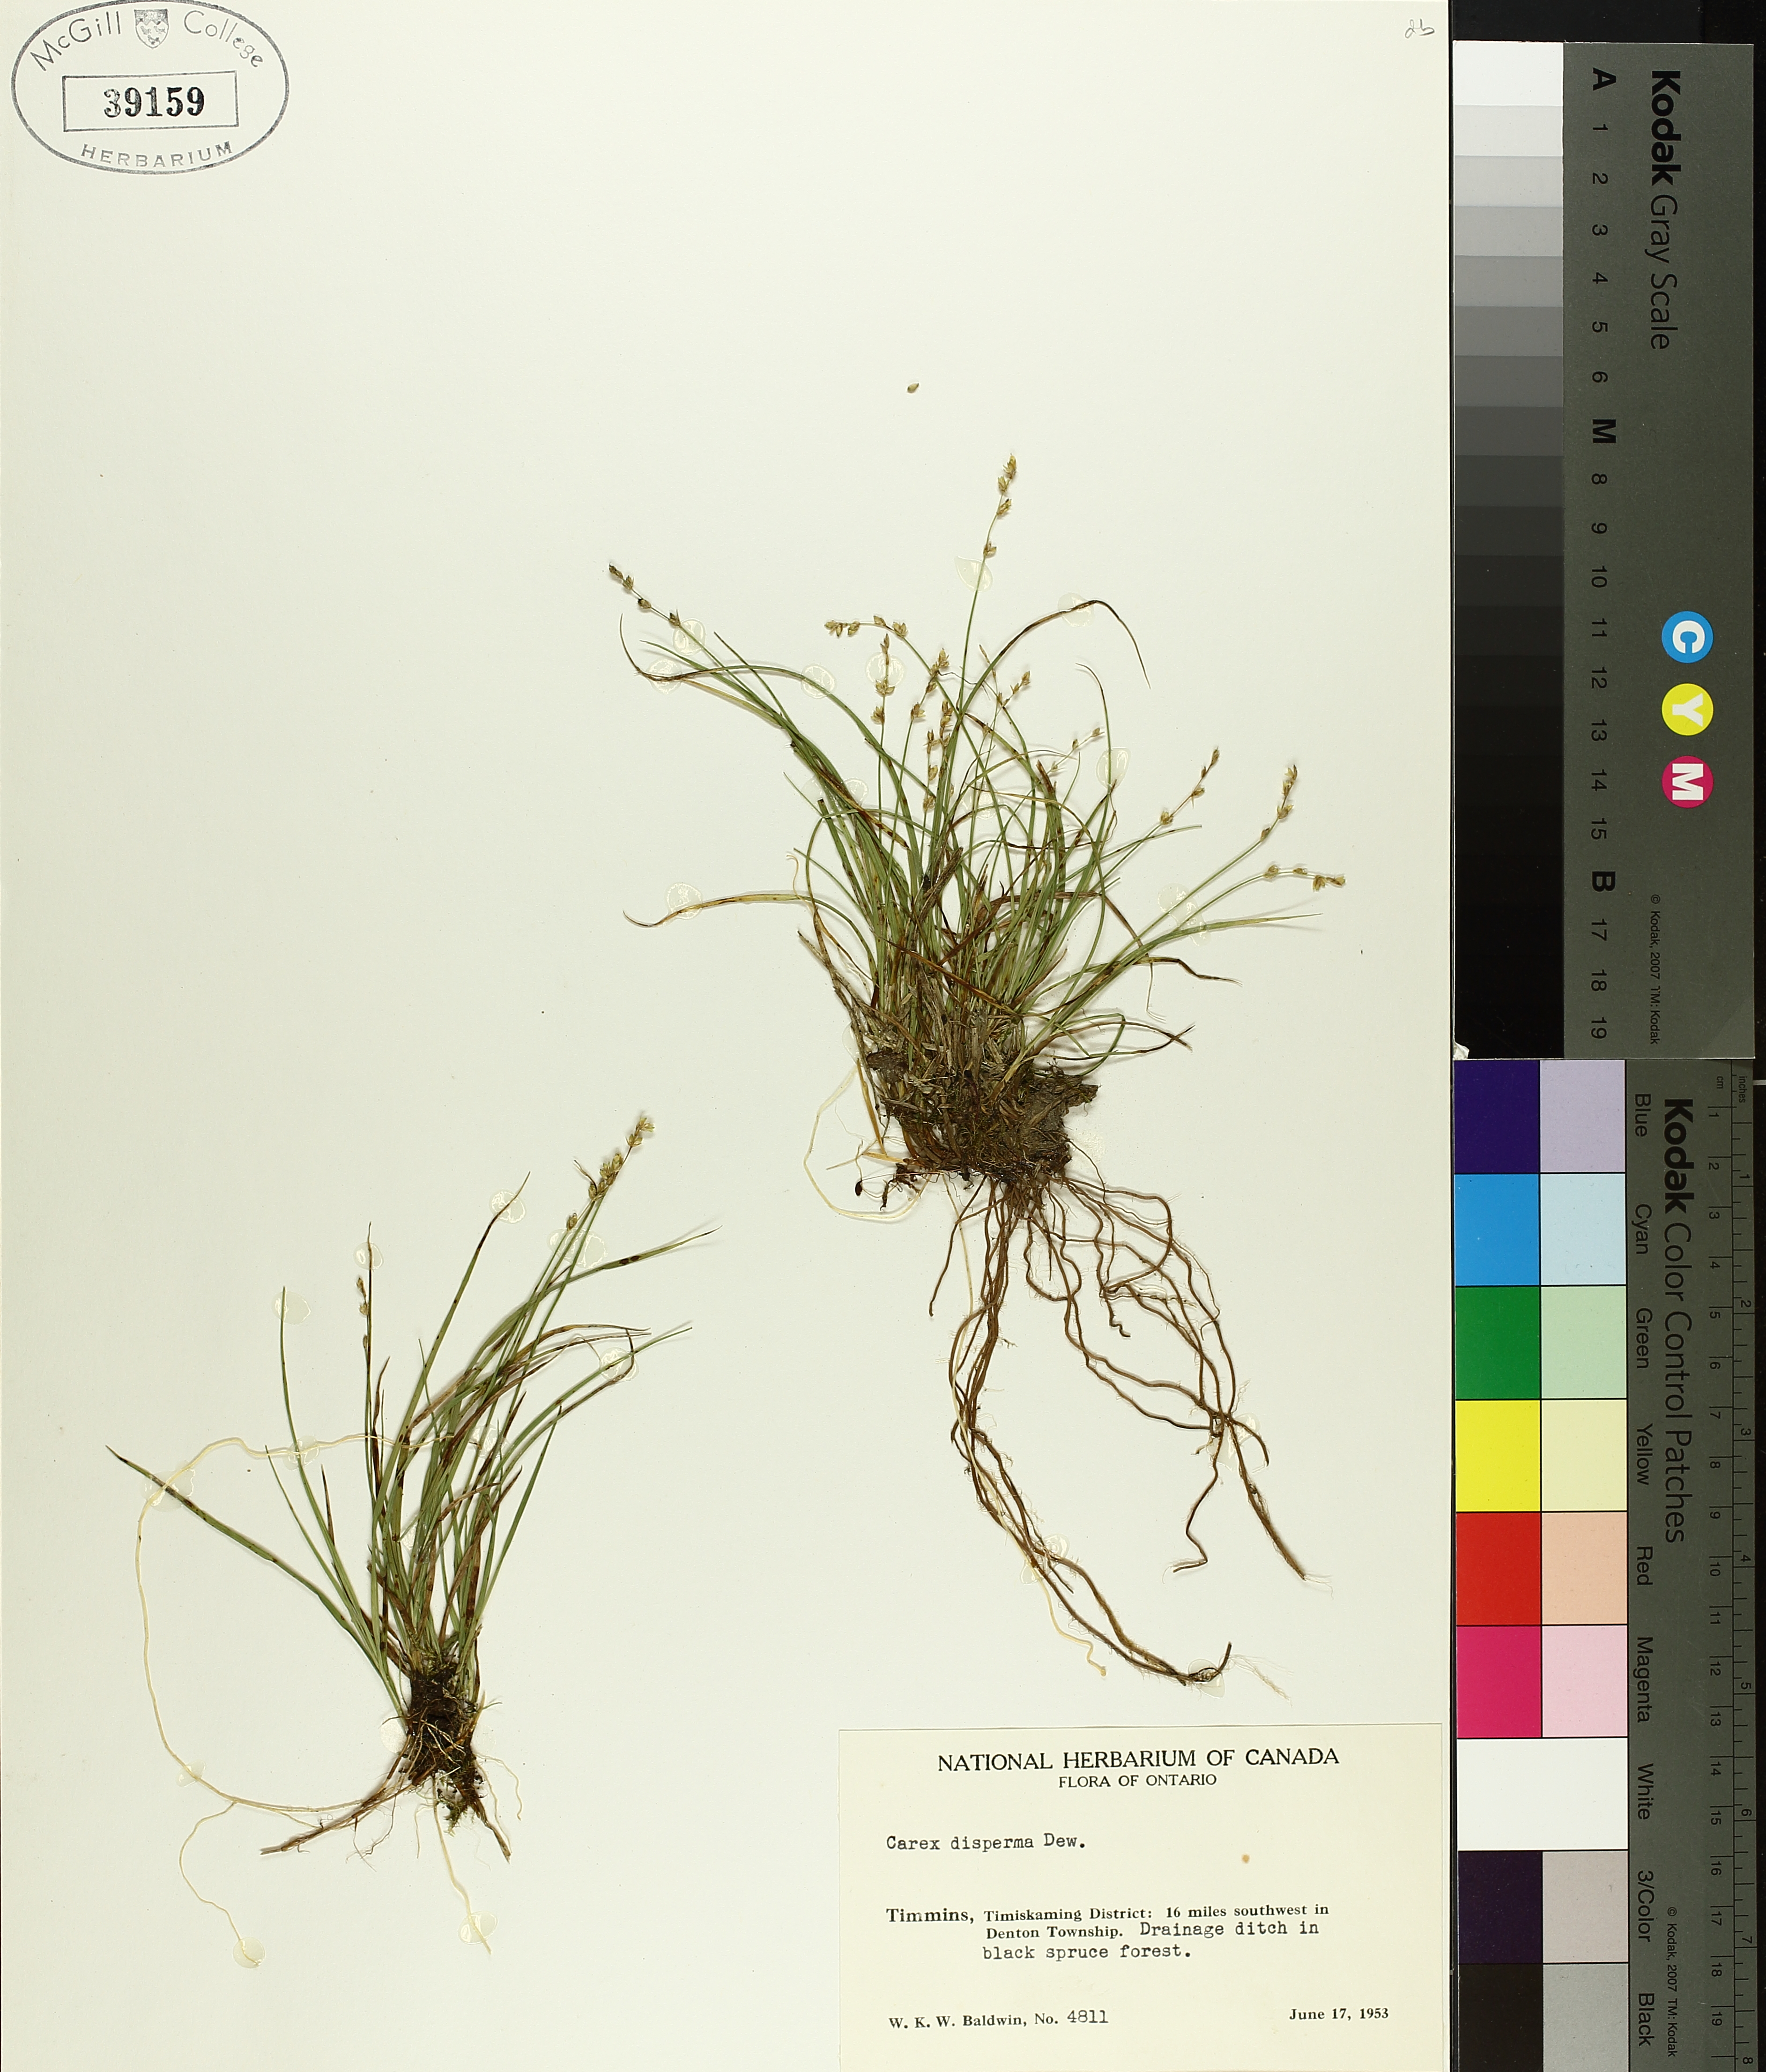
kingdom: Plantae
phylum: Tracheophyta
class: Liliopsida
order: Poales
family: Cyperaceae
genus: Carex
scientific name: Carex disperma
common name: Short-leaved sedge
